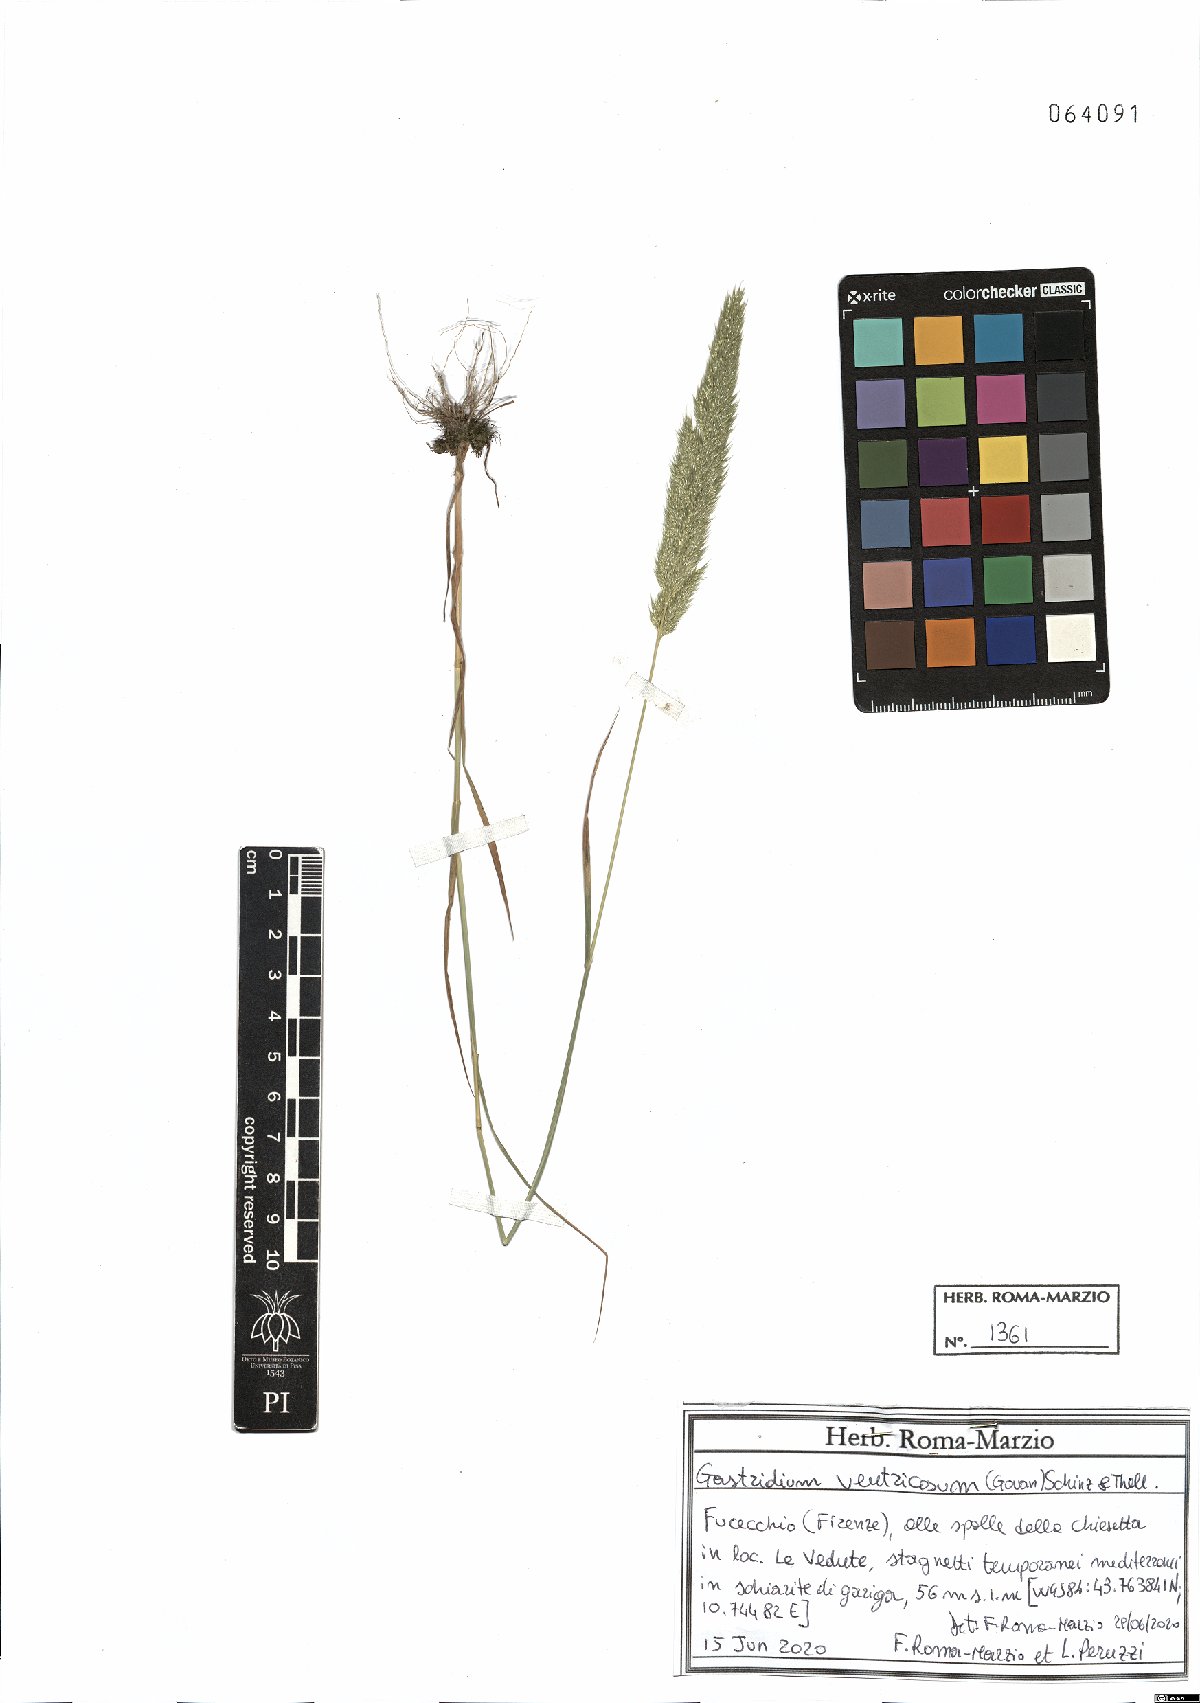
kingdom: Plantae
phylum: Tracheophyta
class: Liliopsida
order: Poales
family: Poaceae
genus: Gastridium
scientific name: Gastridium ventricosum
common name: Nit-grass
